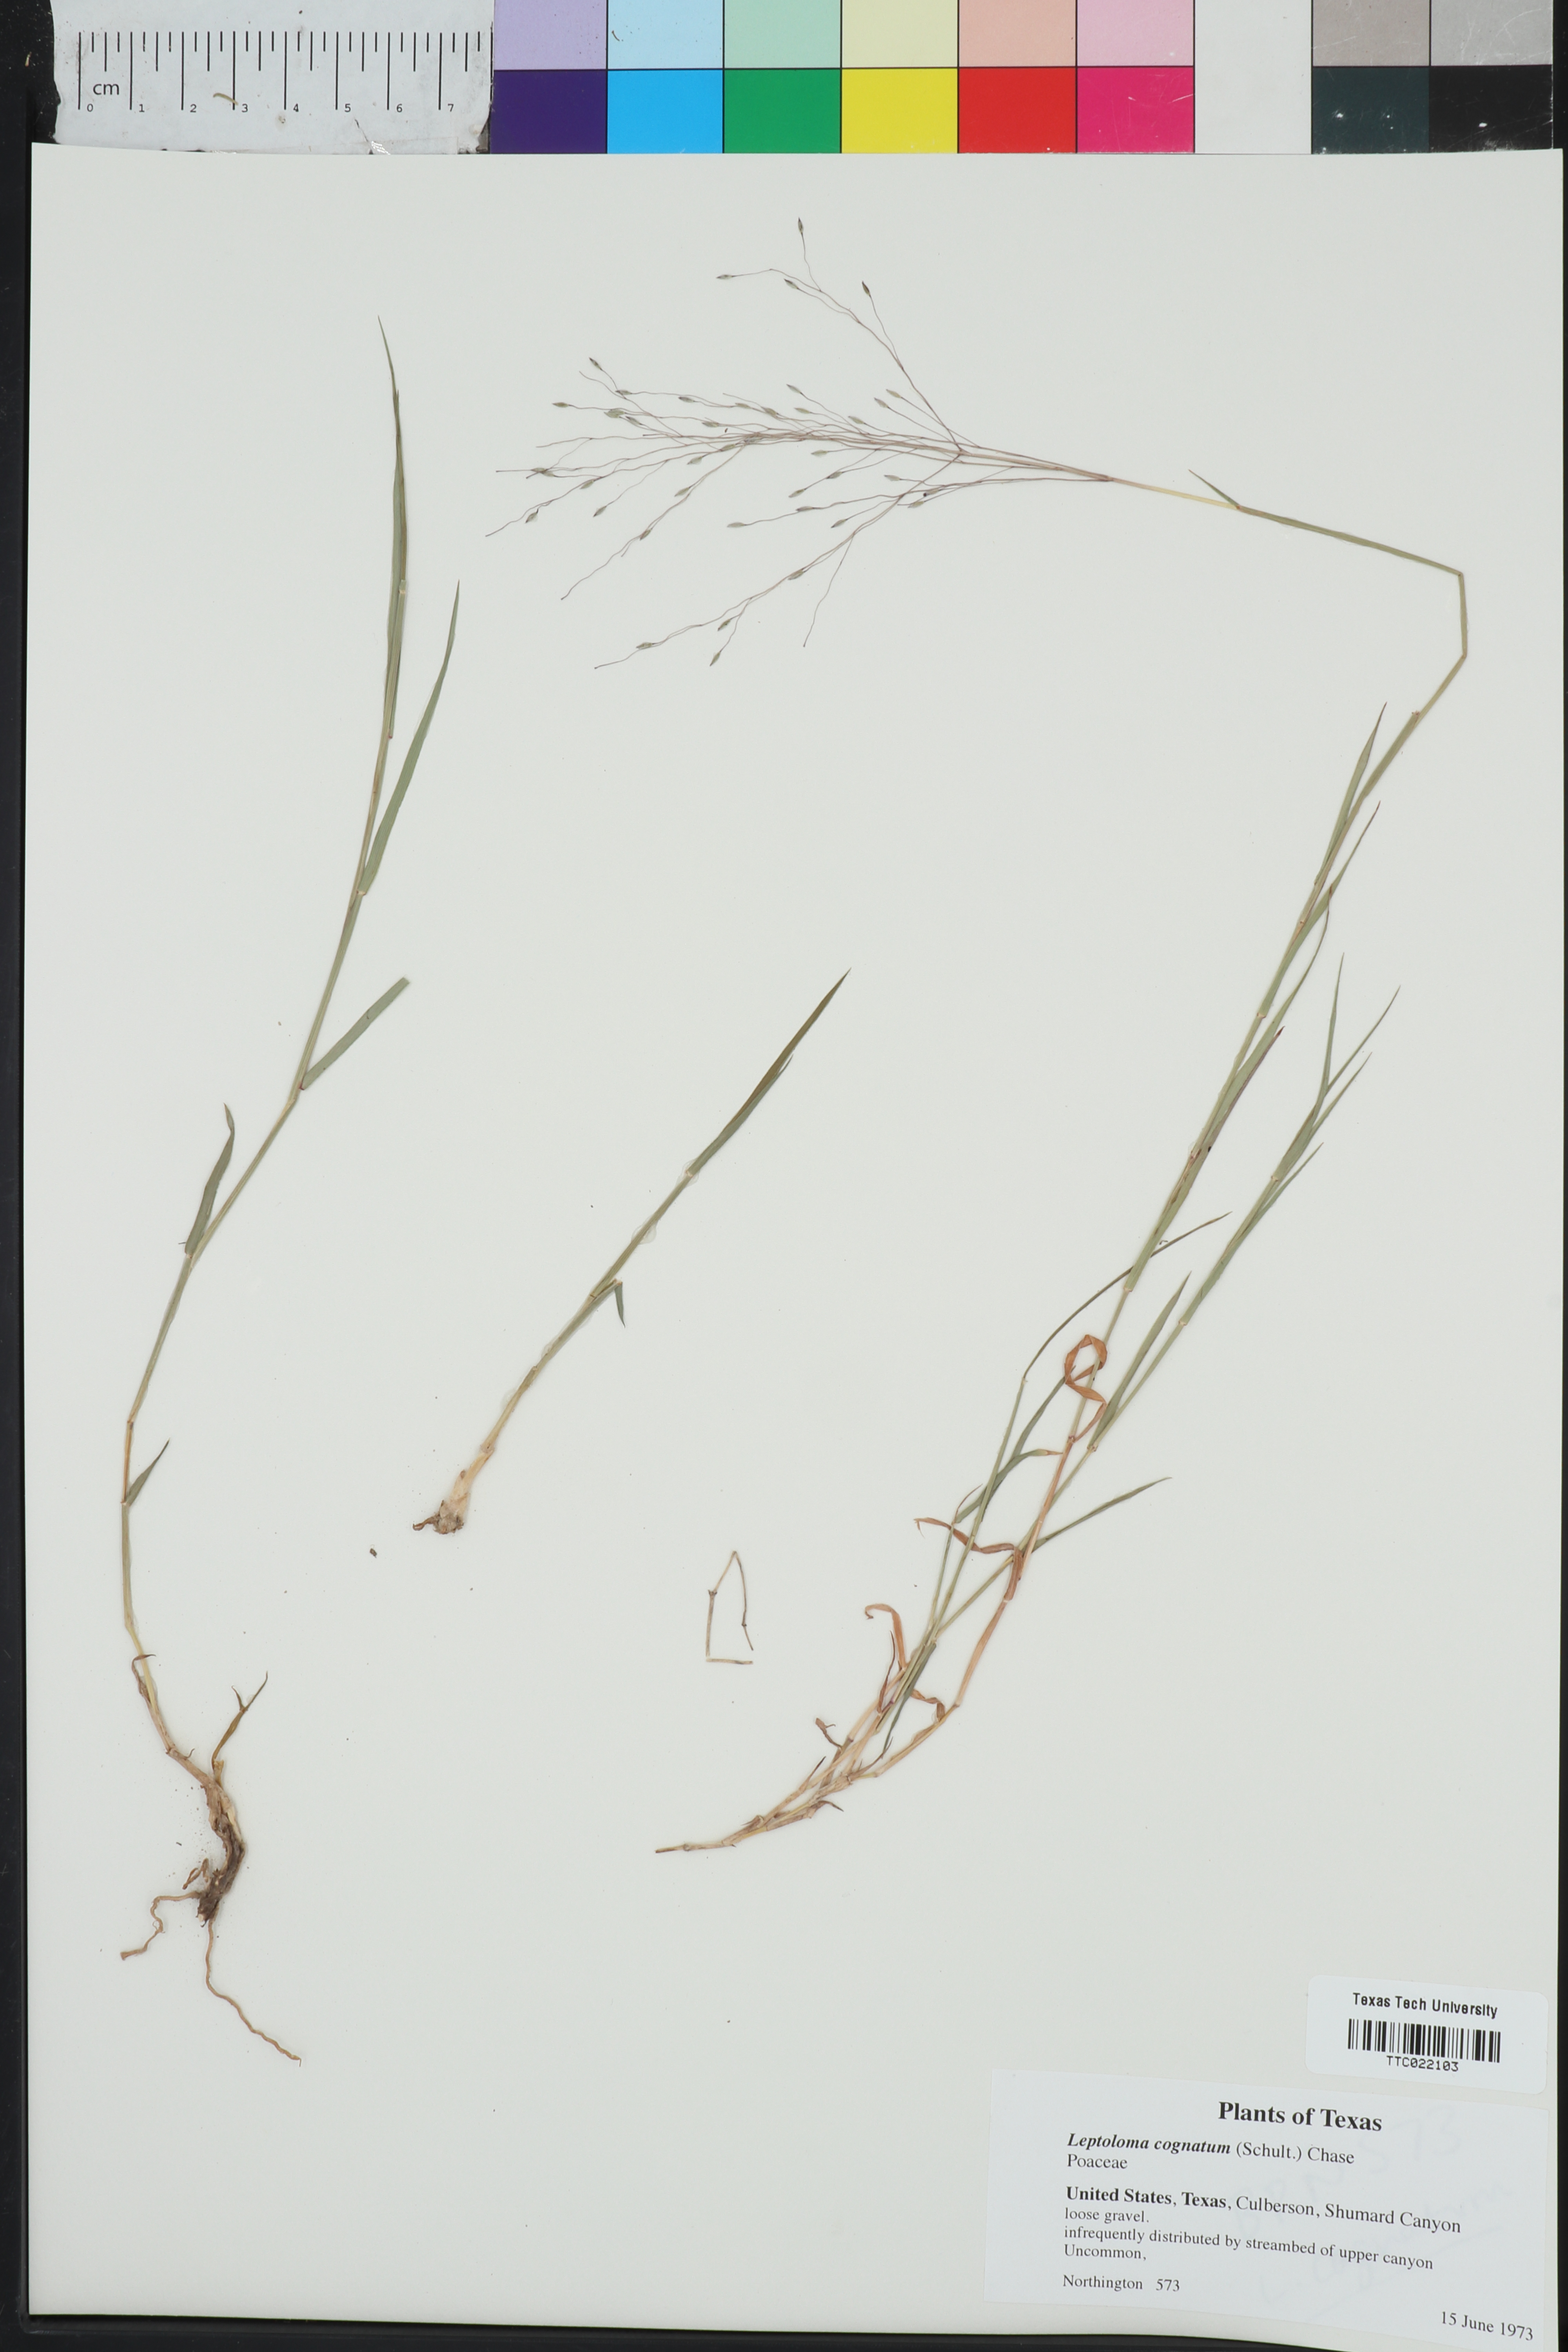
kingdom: Plantae
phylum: Tracheophyta
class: Liliopsida
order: Poales
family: Poaceae
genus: Digitaria
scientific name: Digitaria cognata
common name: Fall witchgrass
